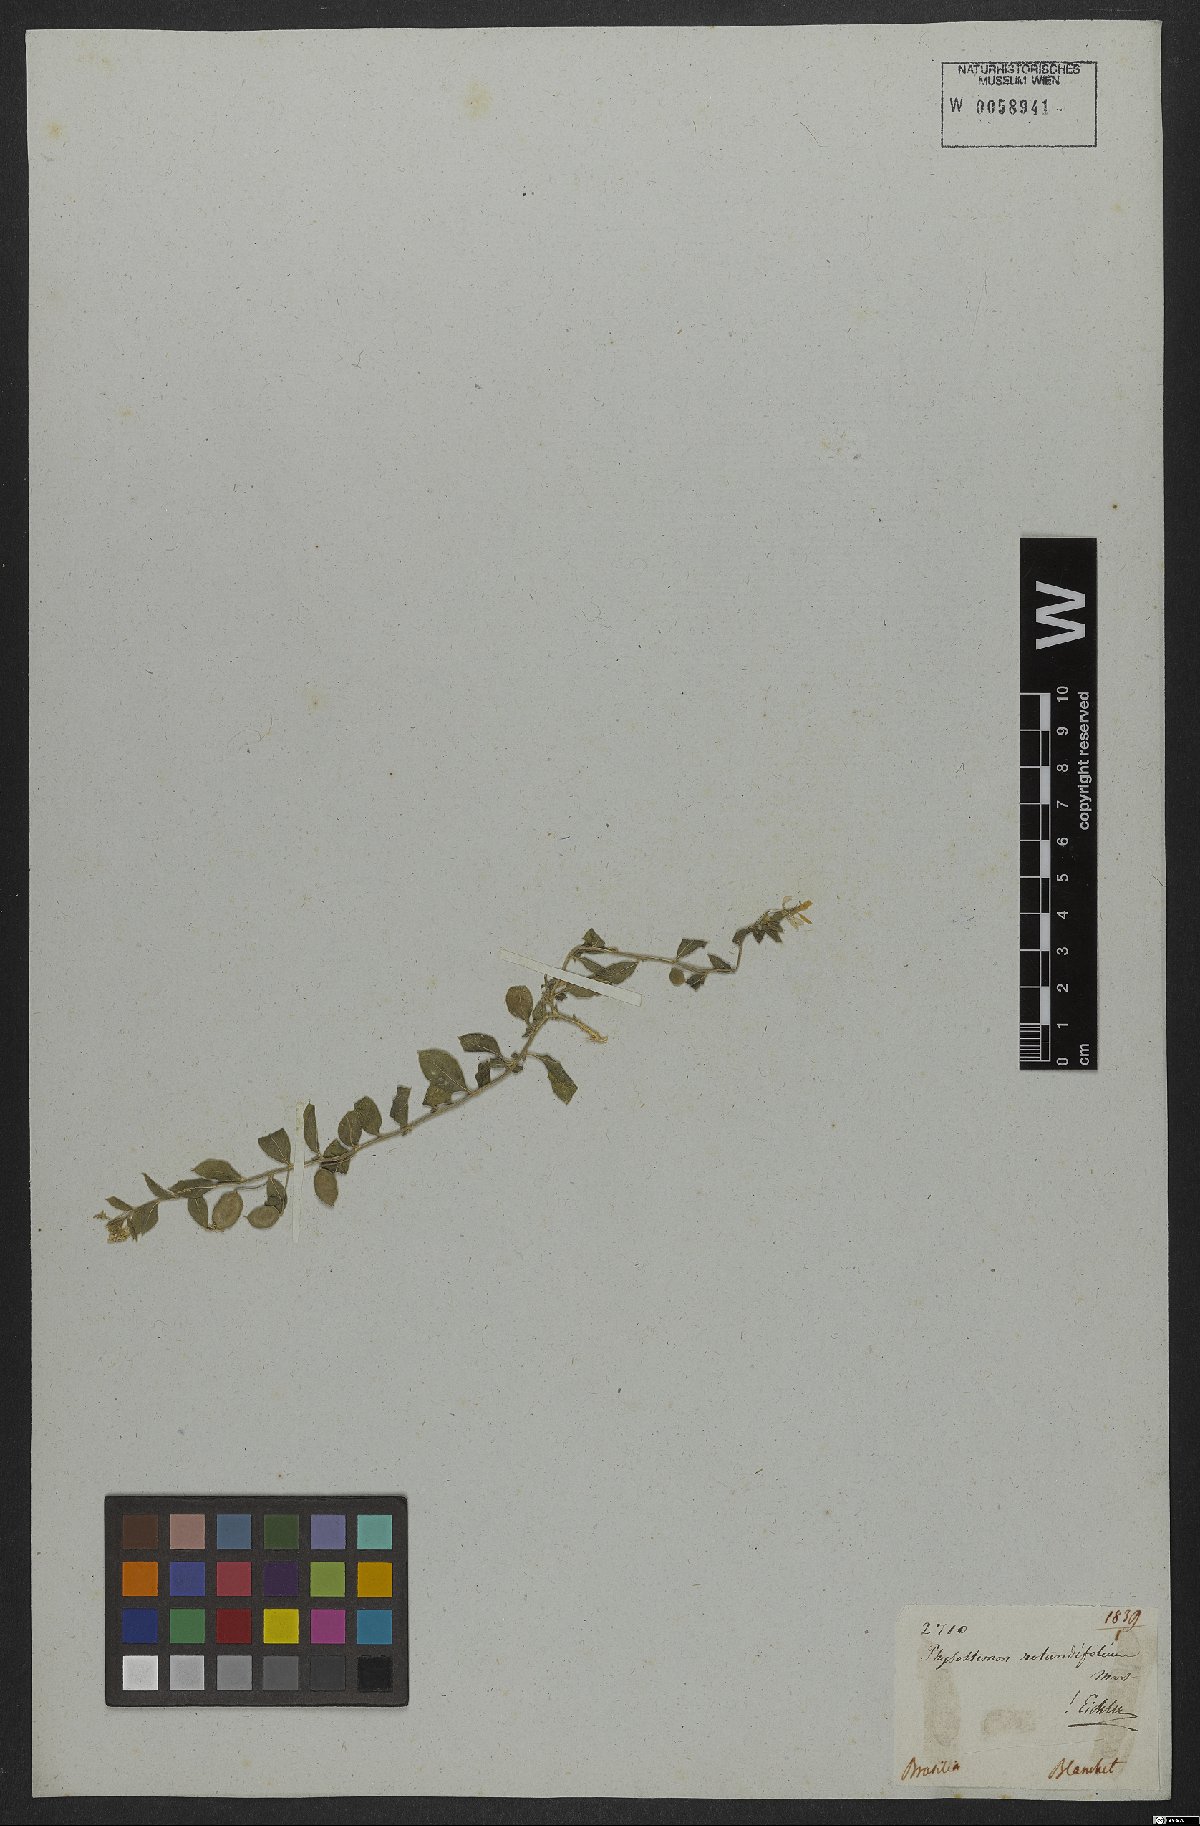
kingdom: Plantae
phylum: Tracheophyta
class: Magnoliopsida
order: Brassicales
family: Cleomaceae
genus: Physostemon
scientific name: Physostemon rotundifolius
